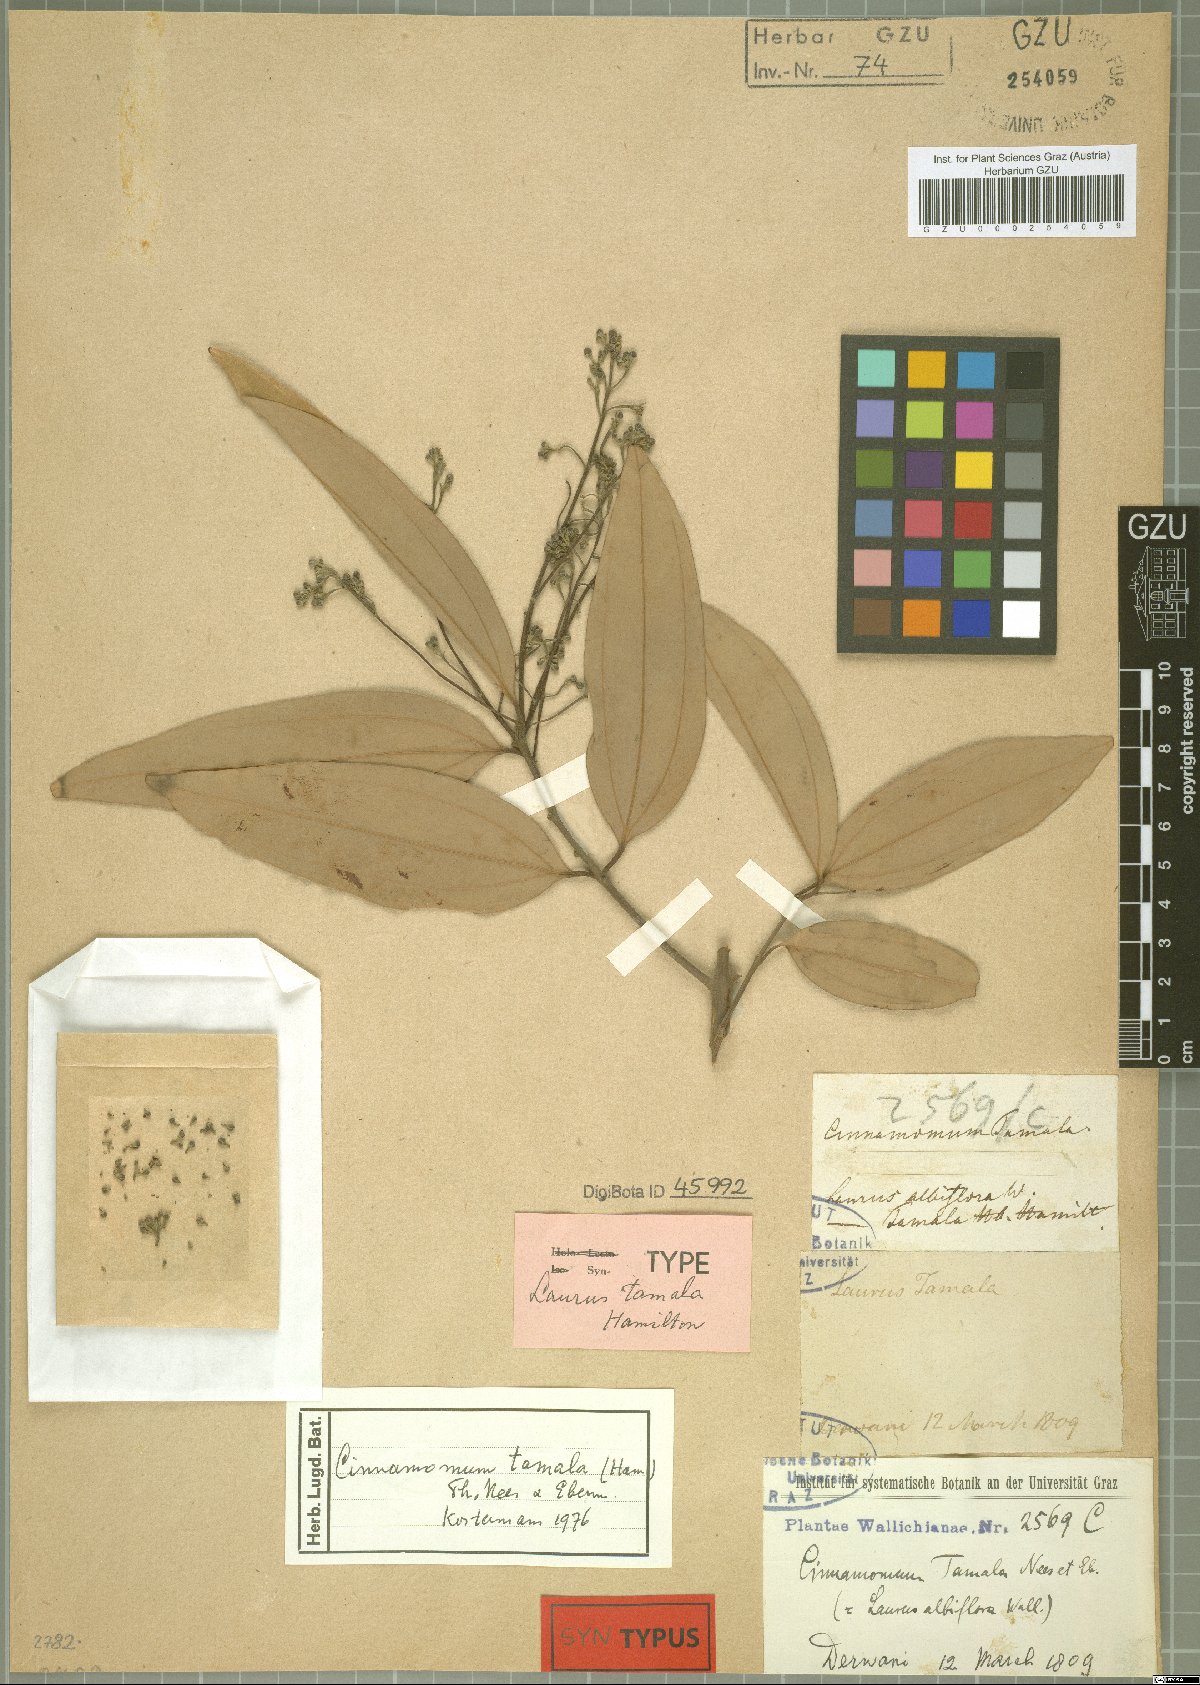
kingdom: Plantae
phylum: Tracheophyta
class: Magnoliopsida
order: Laurales
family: Lauraceae
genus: Cinnamomum
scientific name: Cinnamomum tamala
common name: Indian bay leaves
